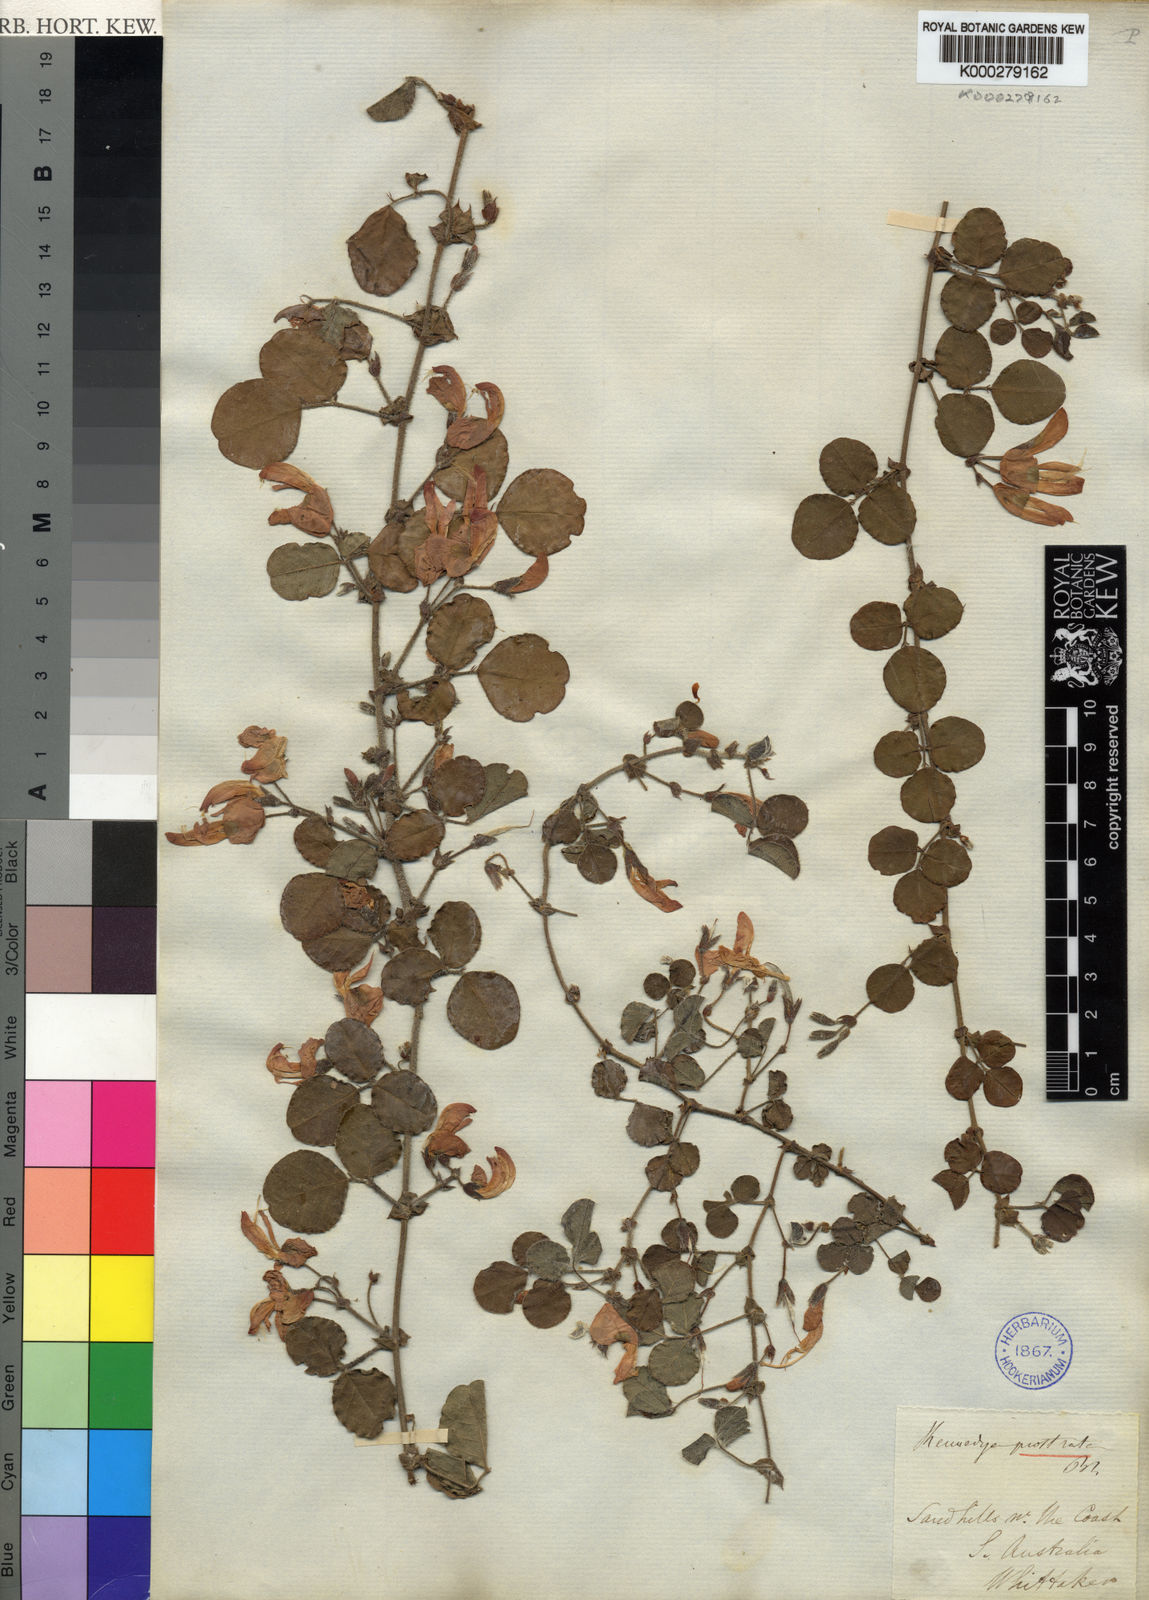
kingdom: Plantae
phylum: Tracheophyta
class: Magnoliopsida
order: Fabales
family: Fabaceae
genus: Kennedia
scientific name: Kennedia prostrata
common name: Running-postman
